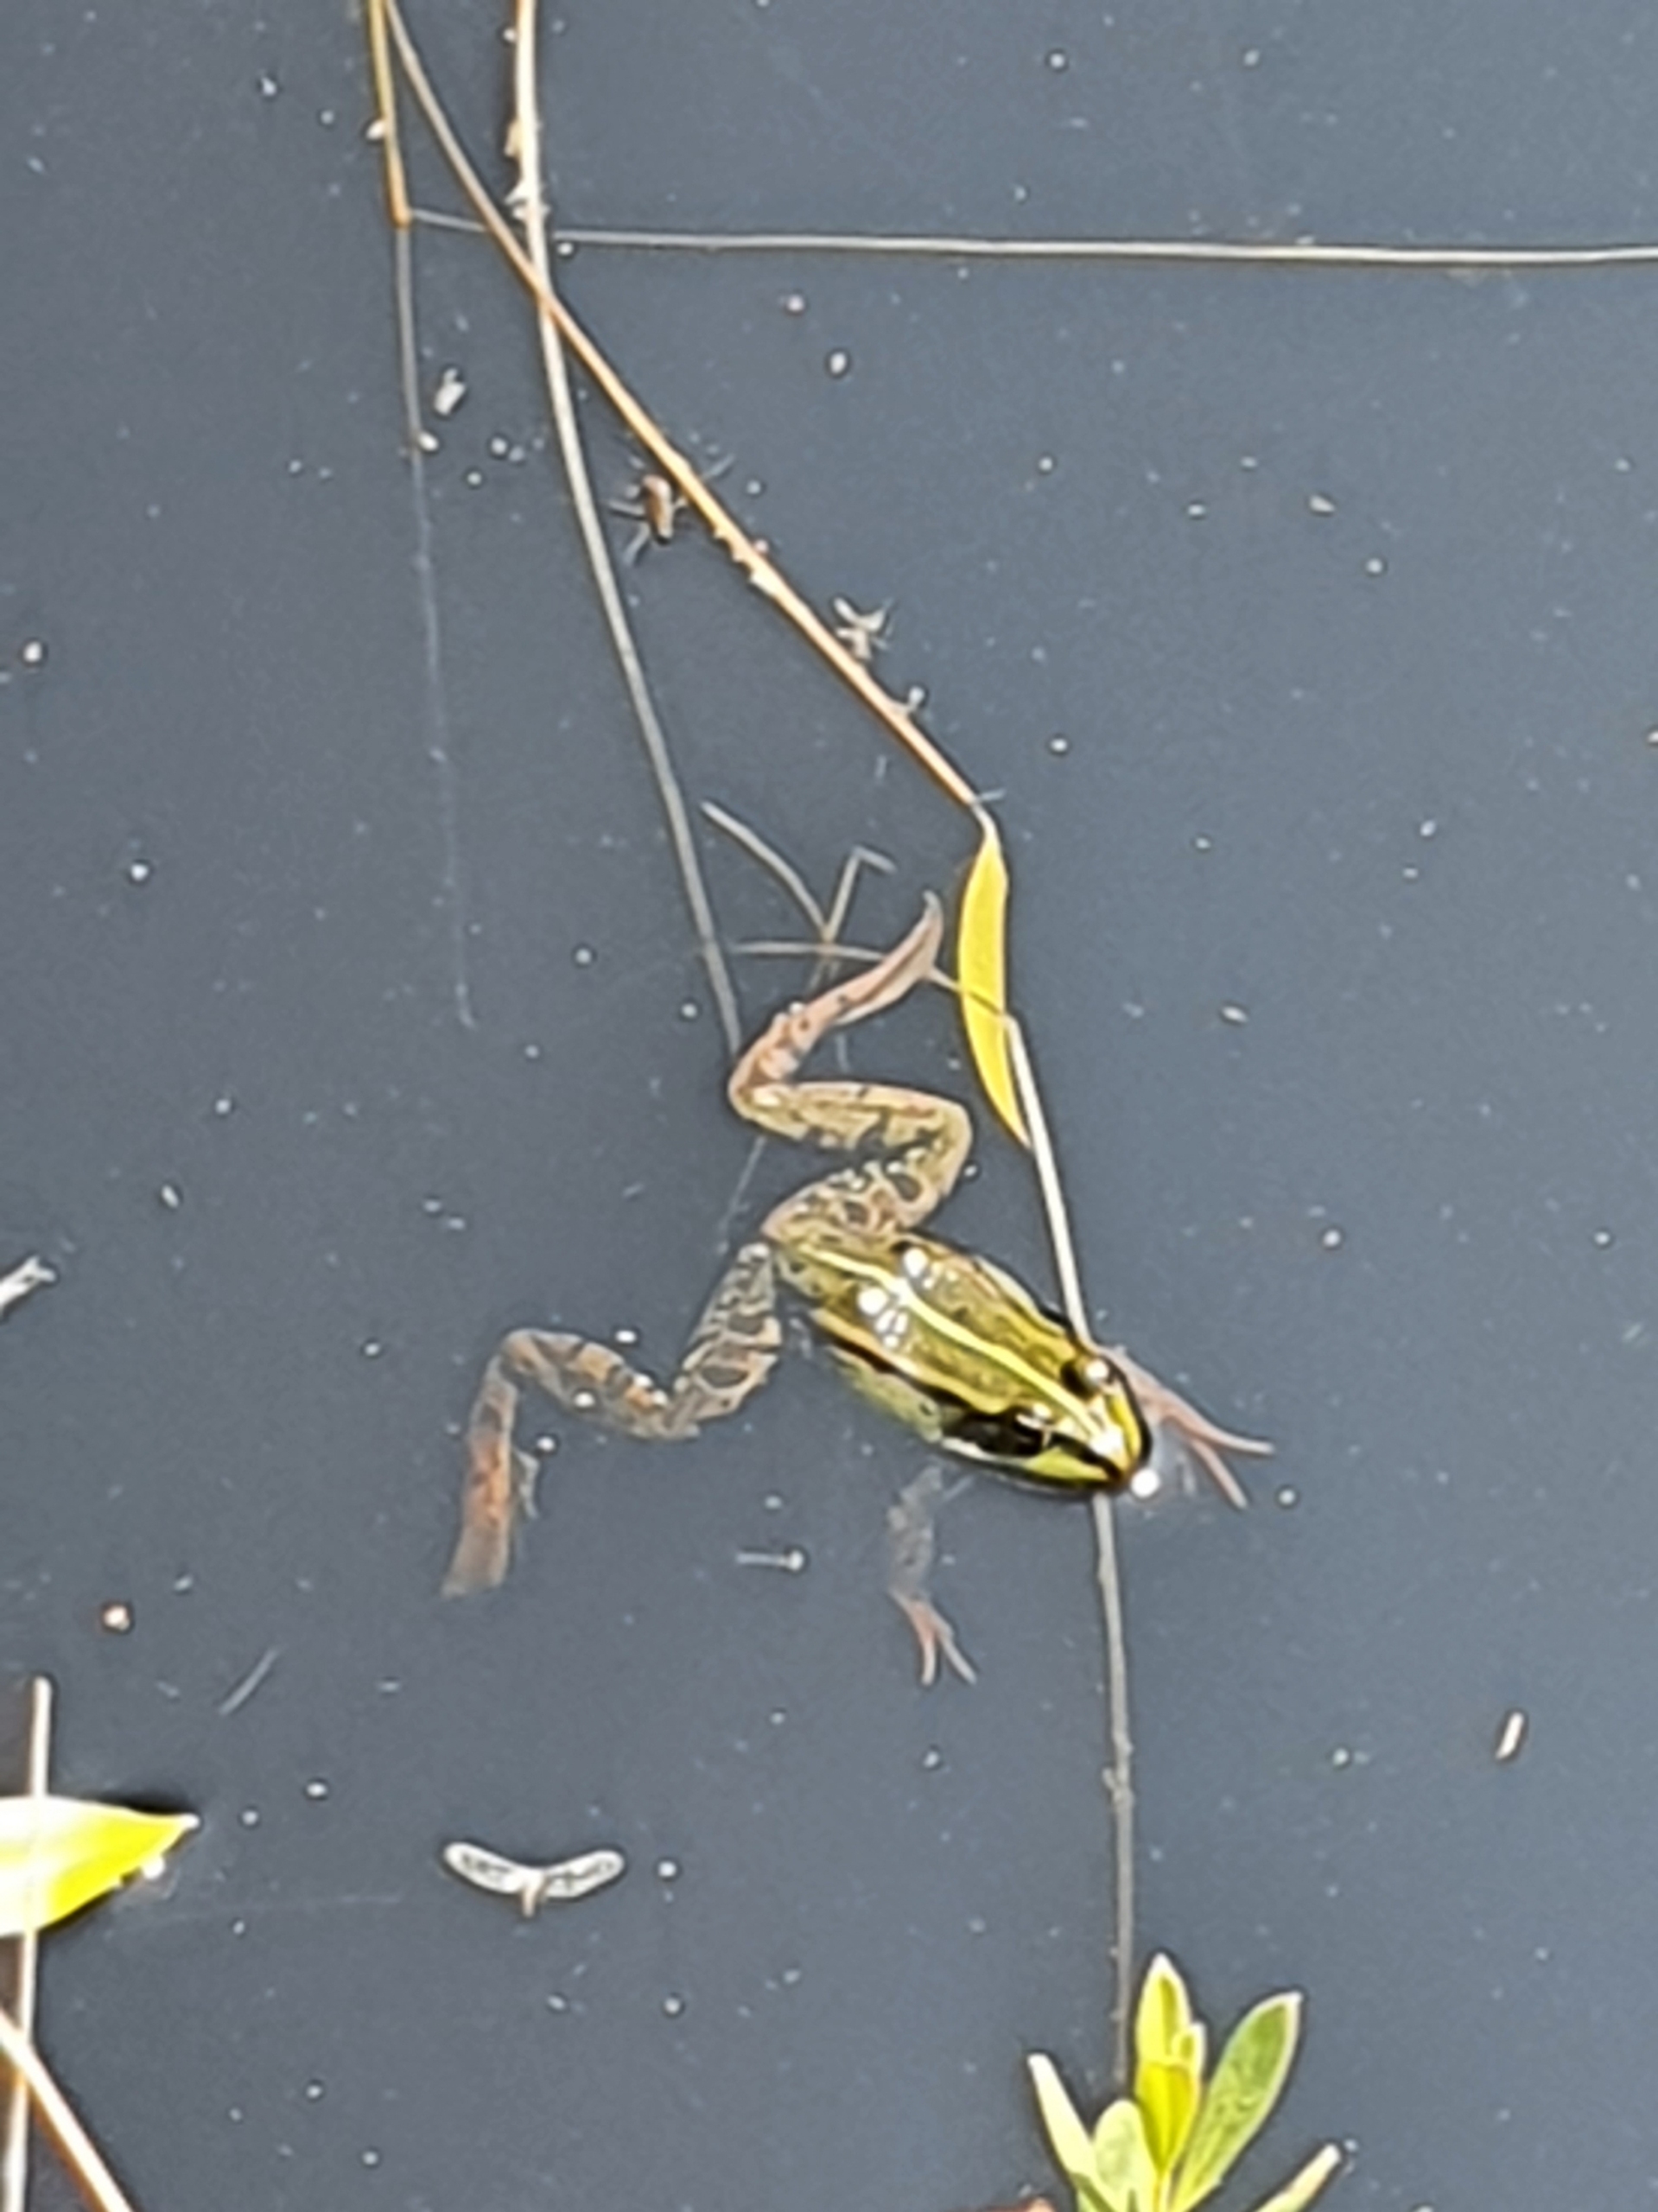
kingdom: Animalia
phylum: Chordata
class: Amphibia
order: Anura
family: Ranidae
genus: Pelophylax
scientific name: Pelophylax lessonae
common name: Grøn frø
